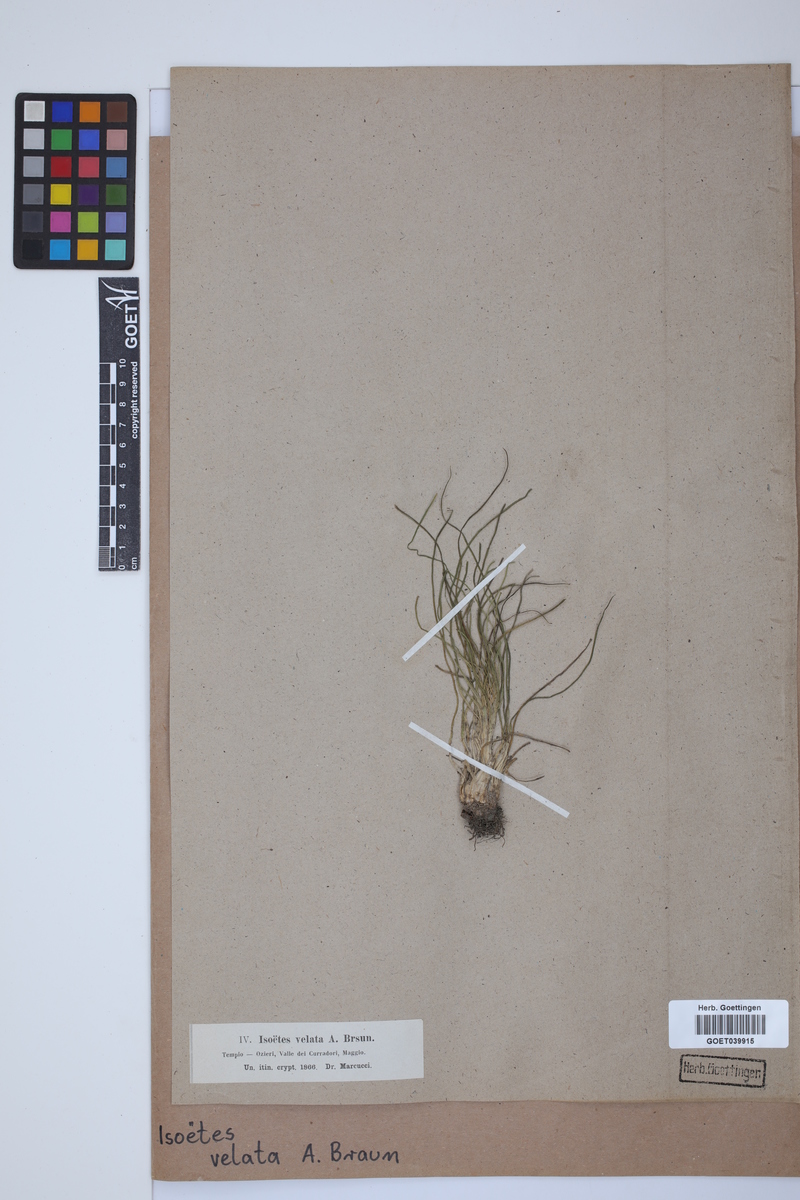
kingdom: Plantae
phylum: Tracheophyta
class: Lycopodiopsida
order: Isoetales
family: Isoetaceae
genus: Isoetes
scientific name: Isoetes longissima
